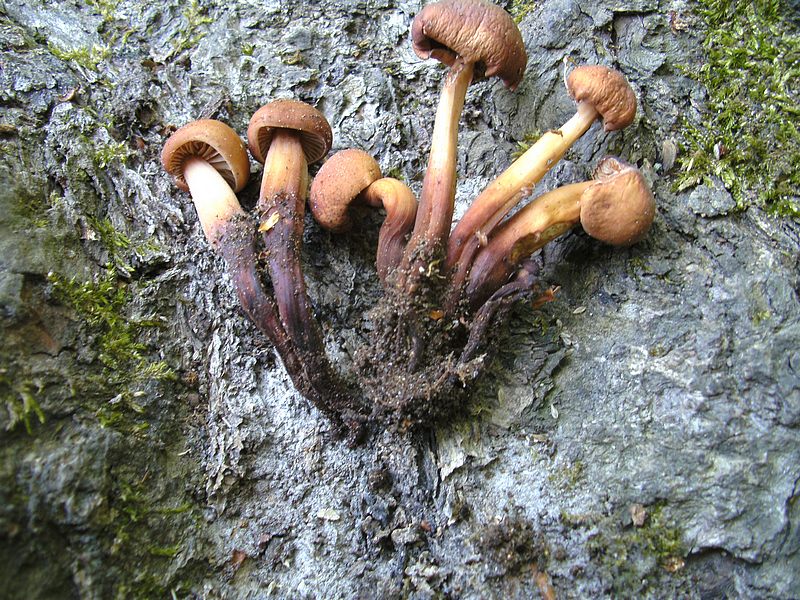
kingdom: Fungi
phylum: Basidiomycota
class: Agaricomycetes
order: Agaricales
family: Omphalotaceae
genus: Gymnopus
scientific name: Gymnopus fusipes
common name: tenstokket fladhat
